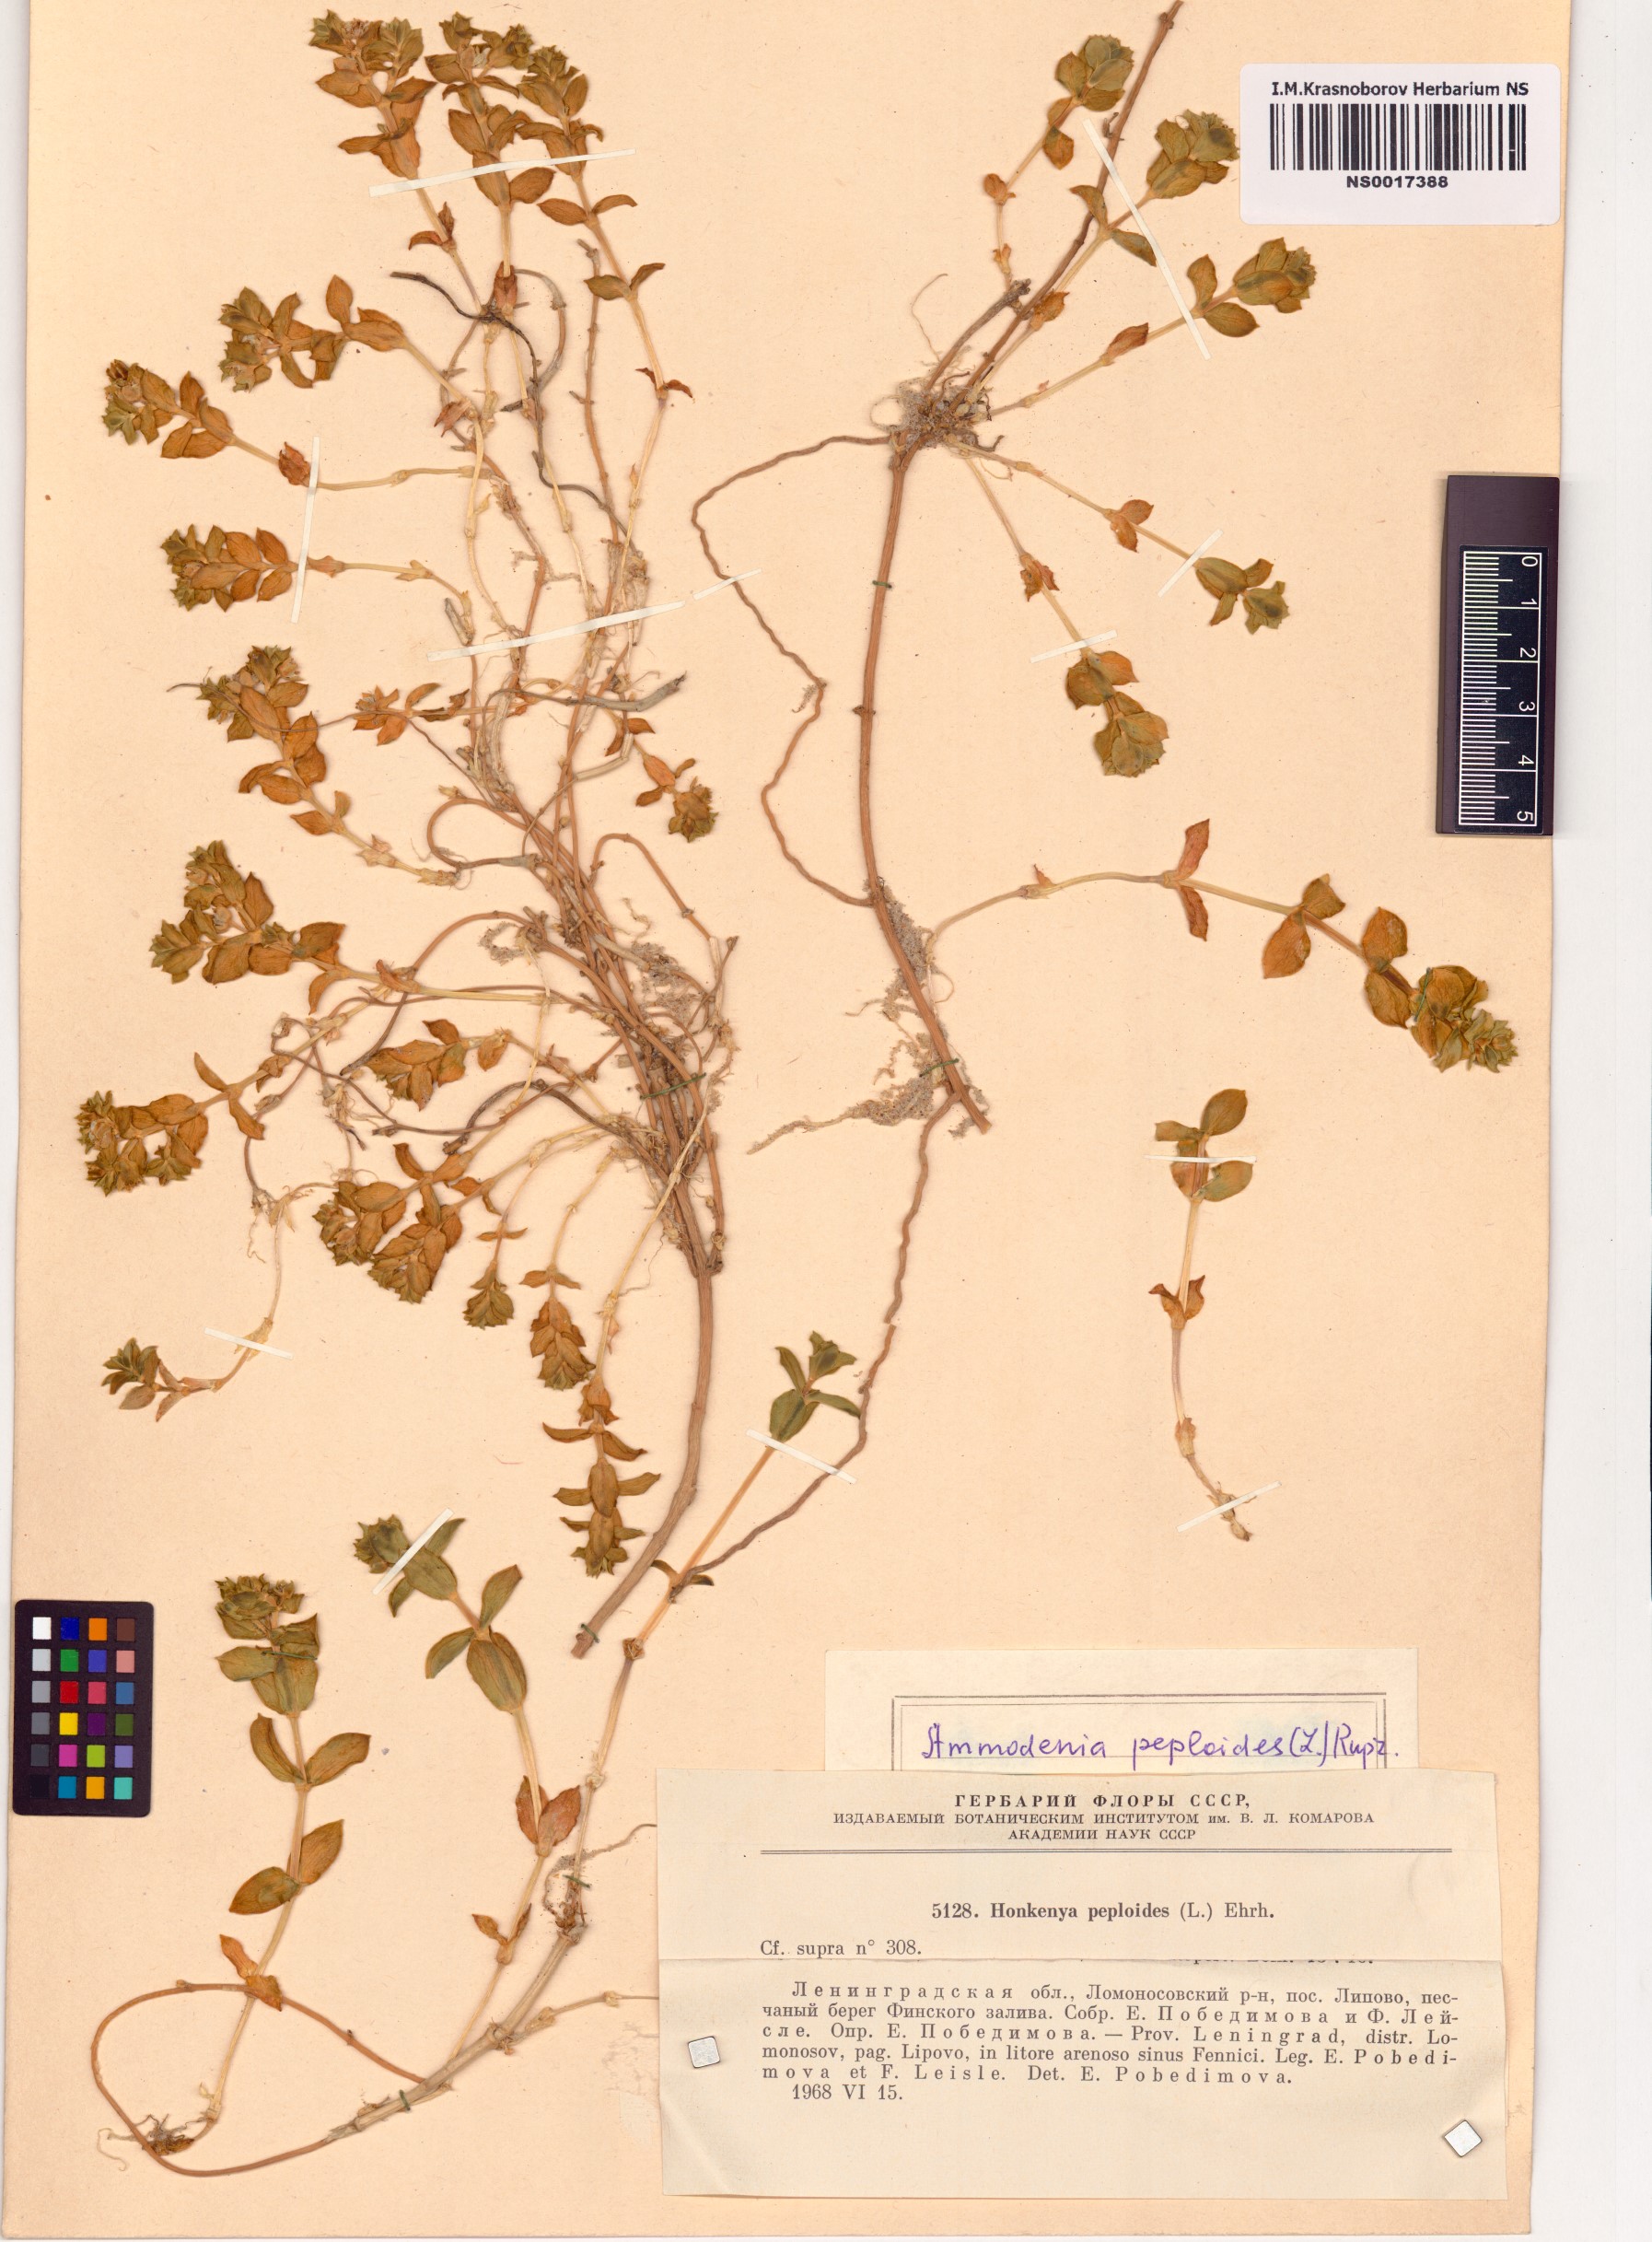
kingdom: Plantae
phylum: Tracheophyta
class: Magnoliopsida
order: Caryophyllales
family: Caryophyllaceae
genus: Honckenya
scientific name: Honckenya peploides
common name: Sea sandwort
